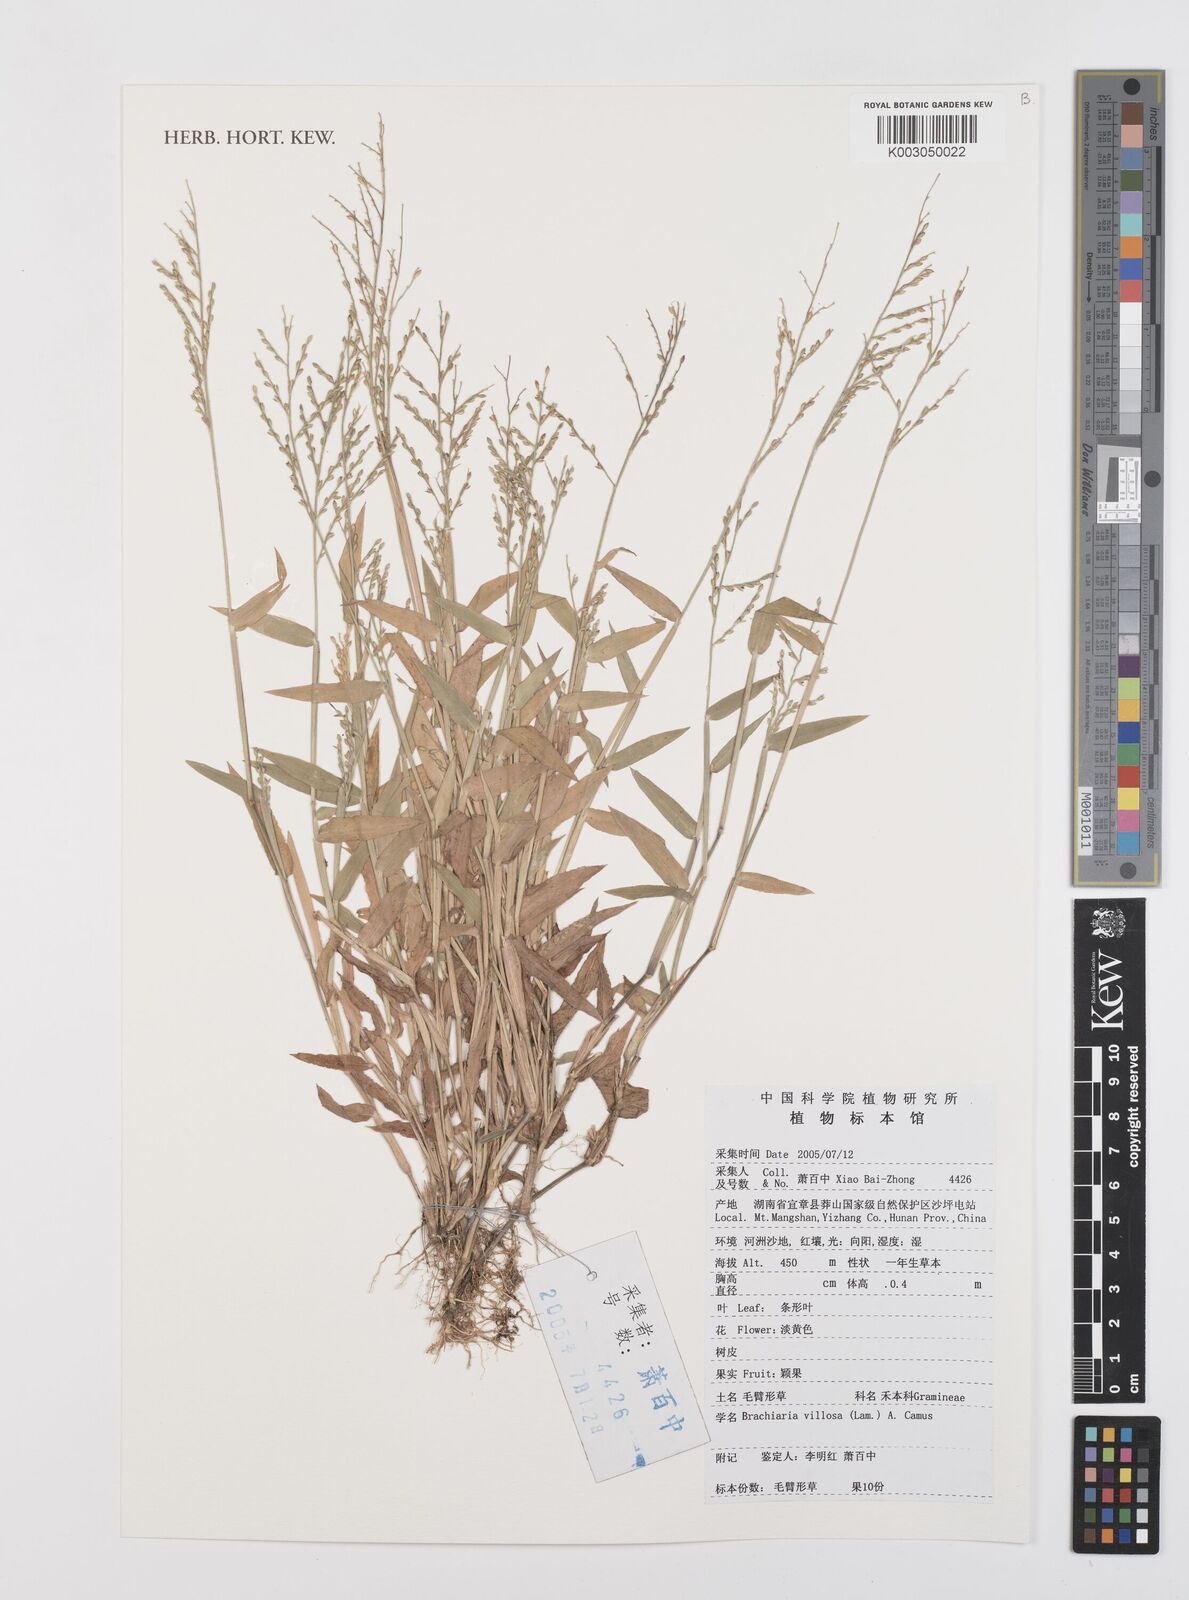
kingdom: Plantae
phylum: Tracheophyta
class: Liliopsida
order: Poales
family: Poaceae
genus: Urochloa
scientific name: Urochloa villosa
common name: Hairy signalgrass
